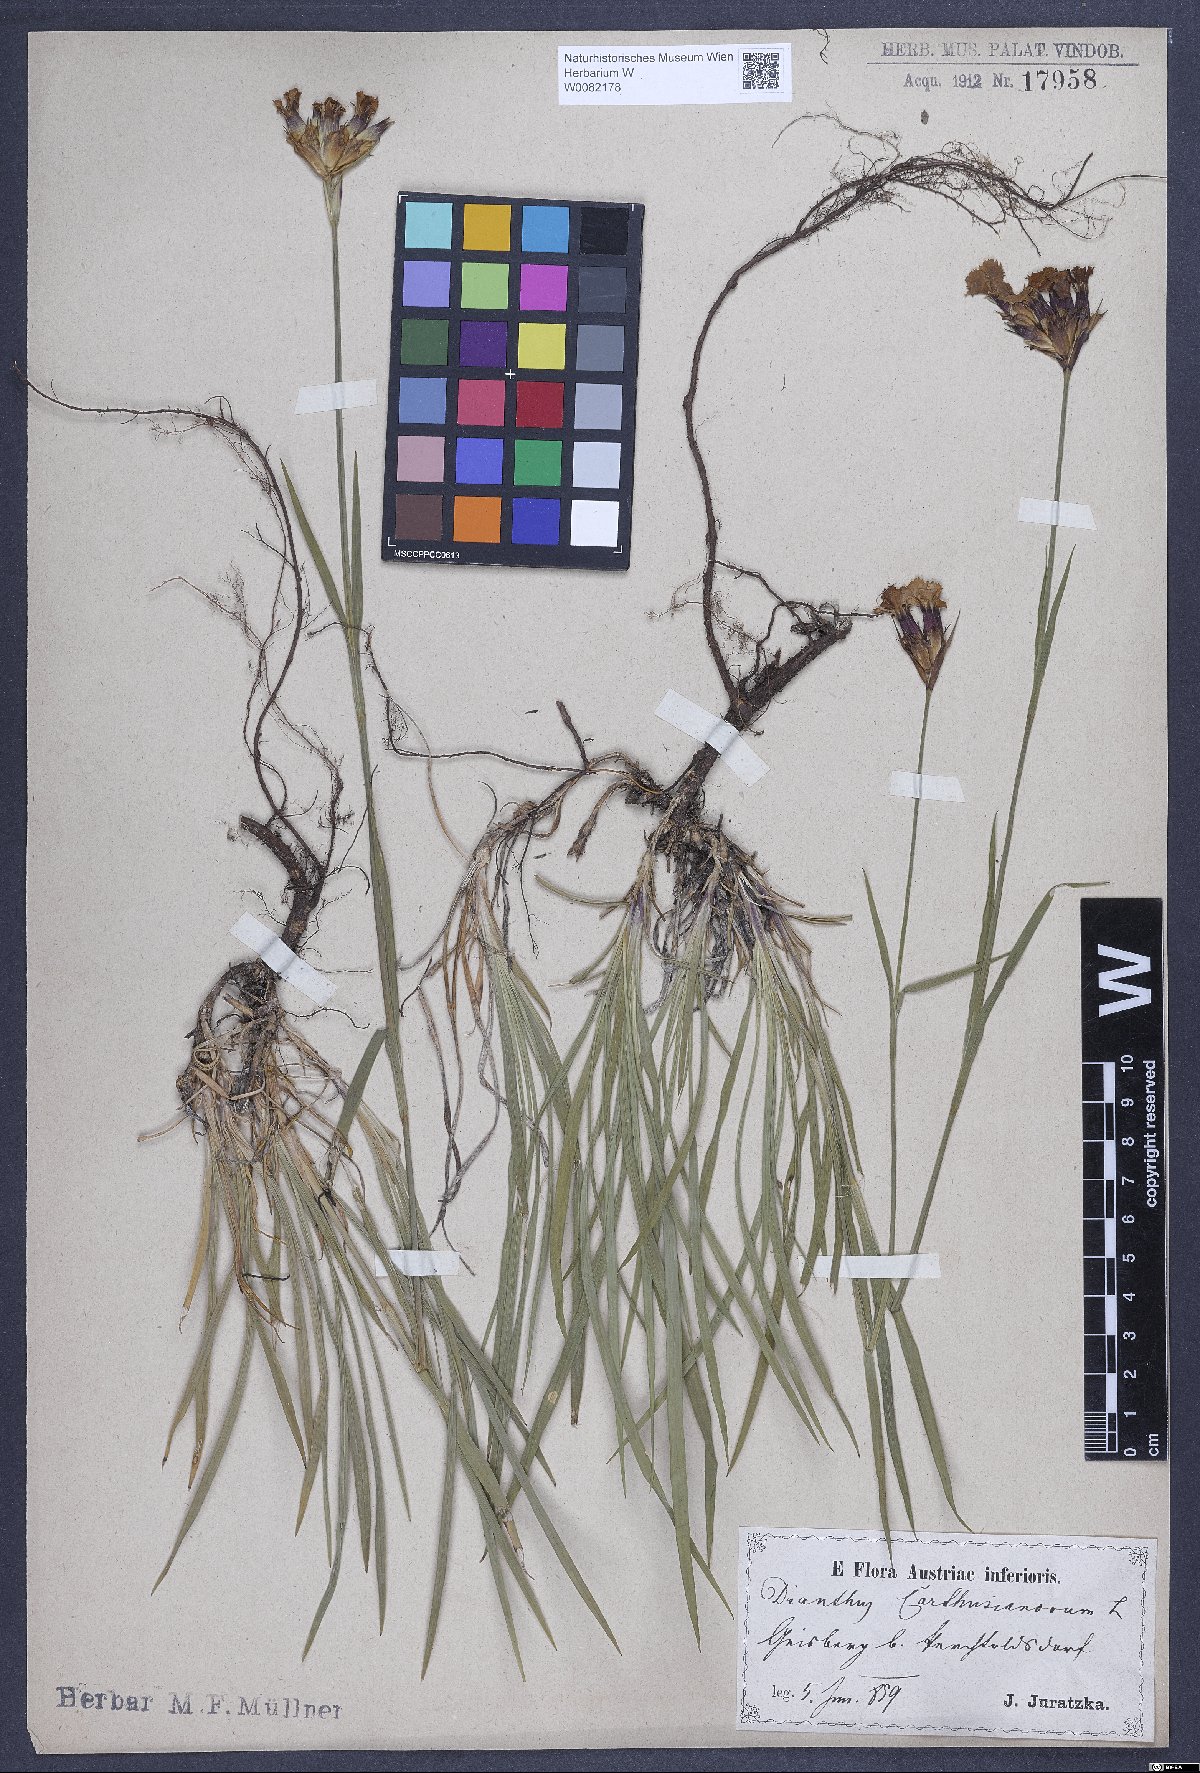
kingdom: Plantae
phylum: Tracheophyta
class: Magnoliopsida
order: Caryophyllales
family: Caryophyllaceae
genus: Dianthus
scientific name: Dianthus carthusianorum
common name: Carthusian pink
